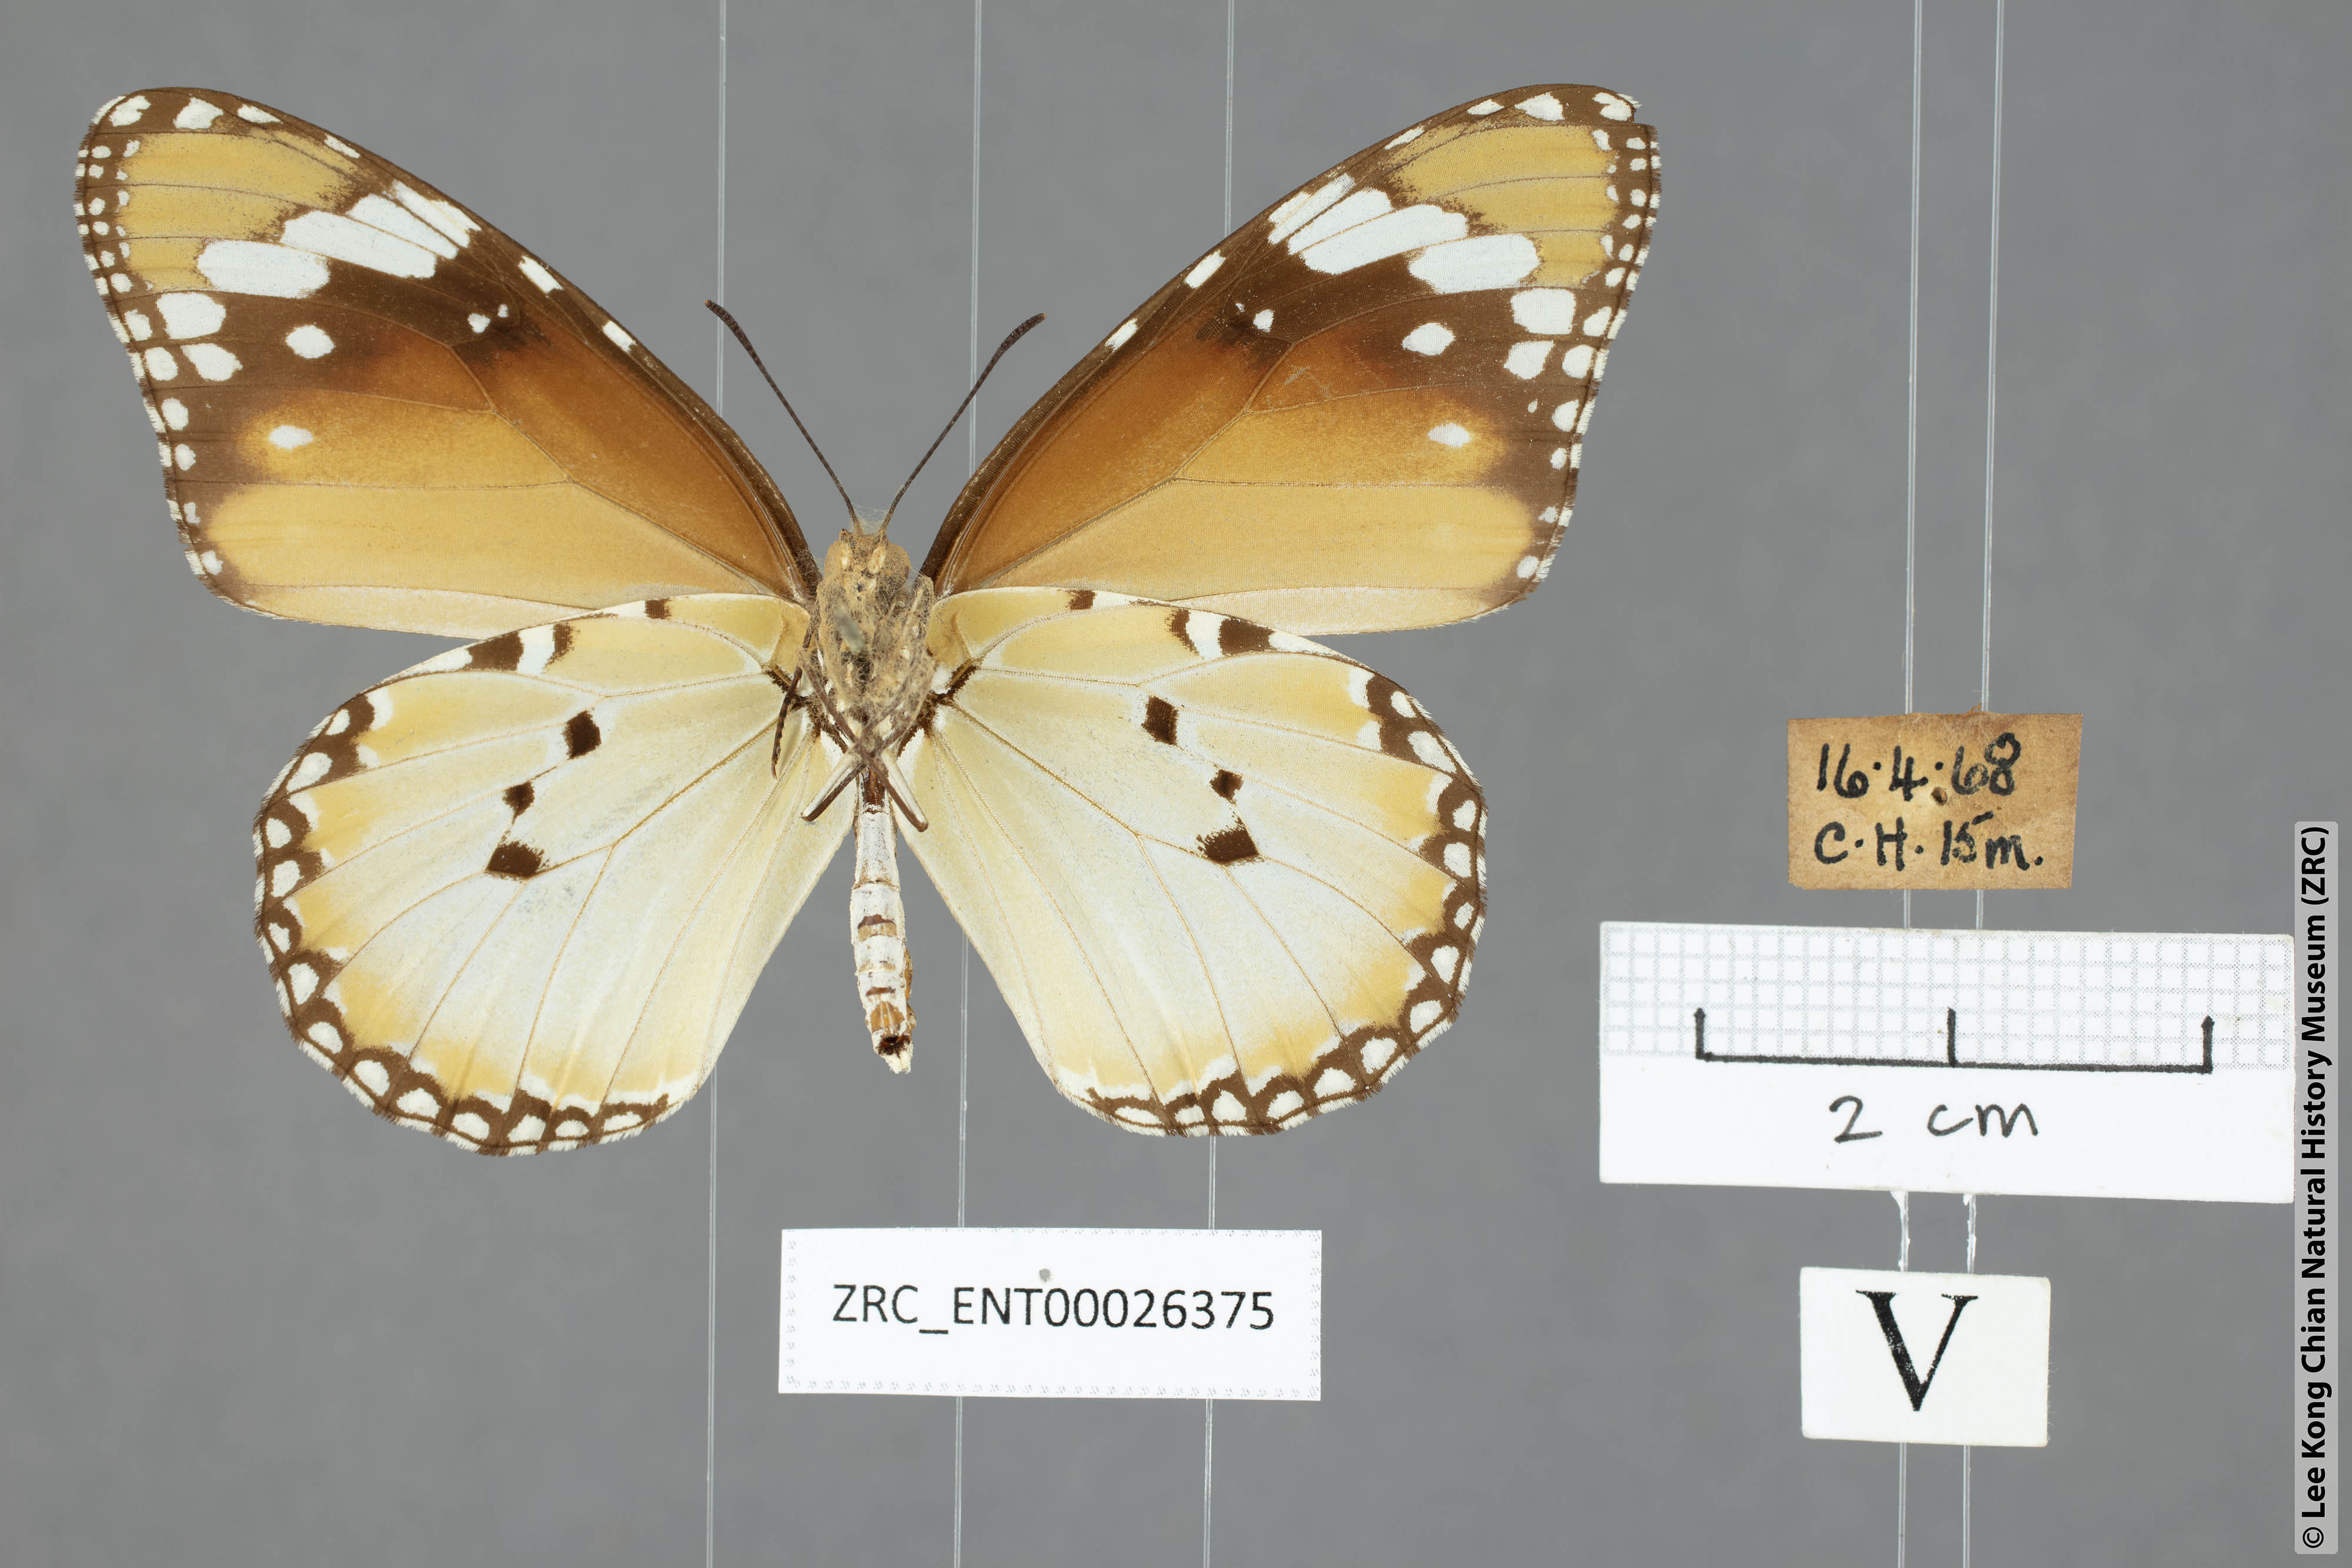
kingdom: Animalia
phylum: Arthropoda
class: Insecta
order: Lepidoptera
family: Nymphalidae
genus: Danaus
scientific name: Danaus chrysippus
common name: Plain tiger
